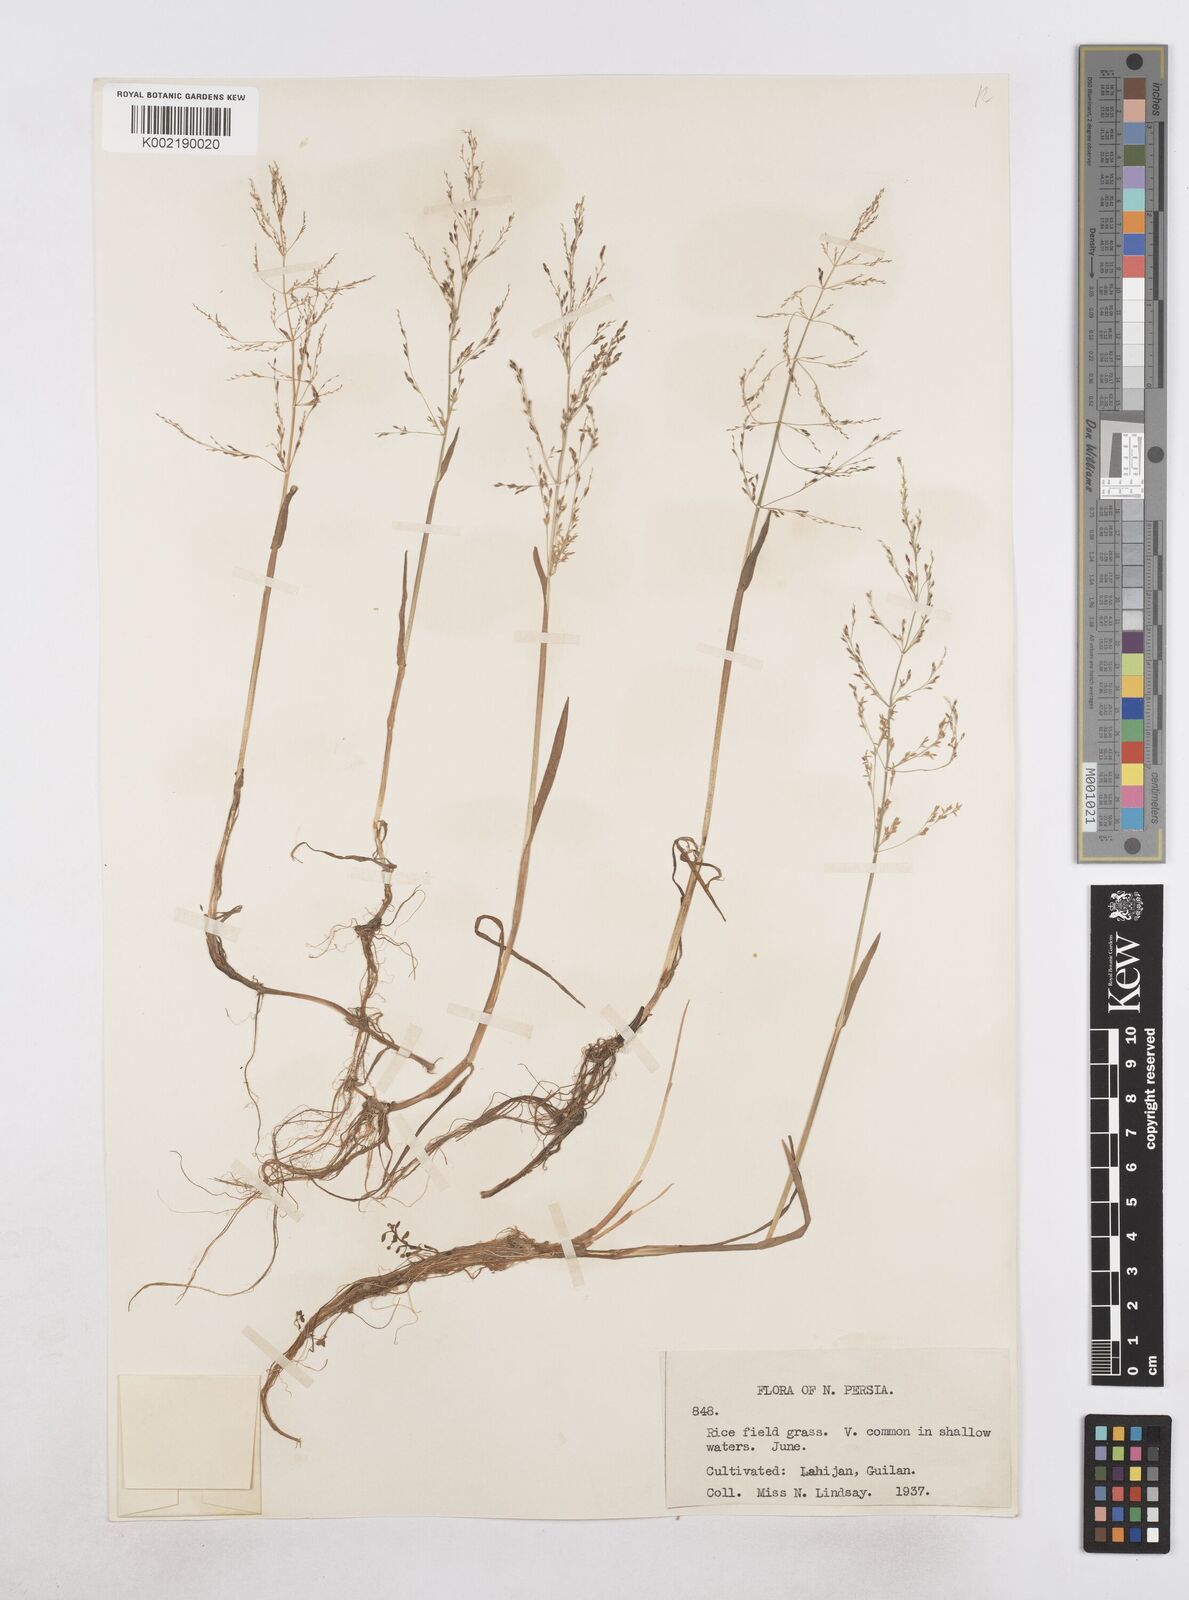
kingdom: Plantae
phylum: Tracheophyta
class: Liliopsida
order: Poales
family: Poaceae
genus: Catabrosa
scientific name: Catabrosa aquatica
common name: Whorl-grass
